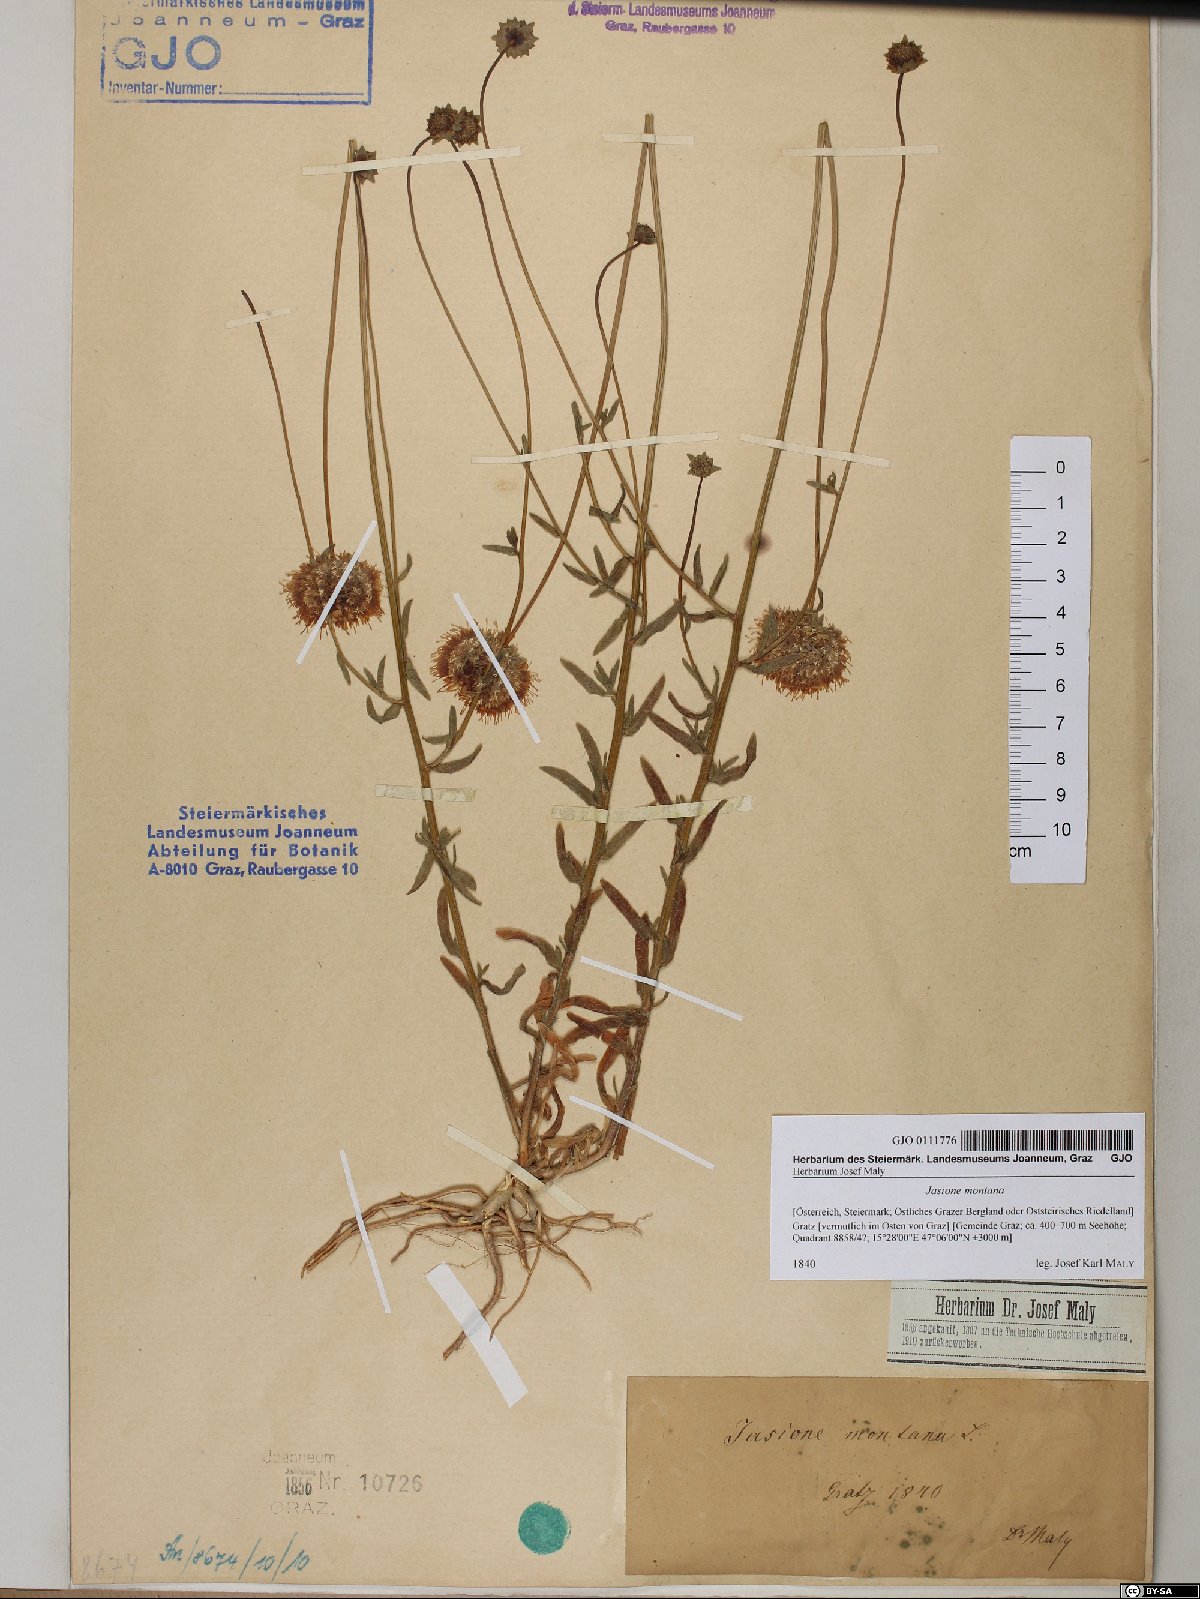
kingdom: Plantae
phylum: Tracheophyta
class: Magnoliopsida
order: Asterales
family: Campanulaceae
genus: Jasione
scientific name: Jasione montana
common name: Sheep's-bit
